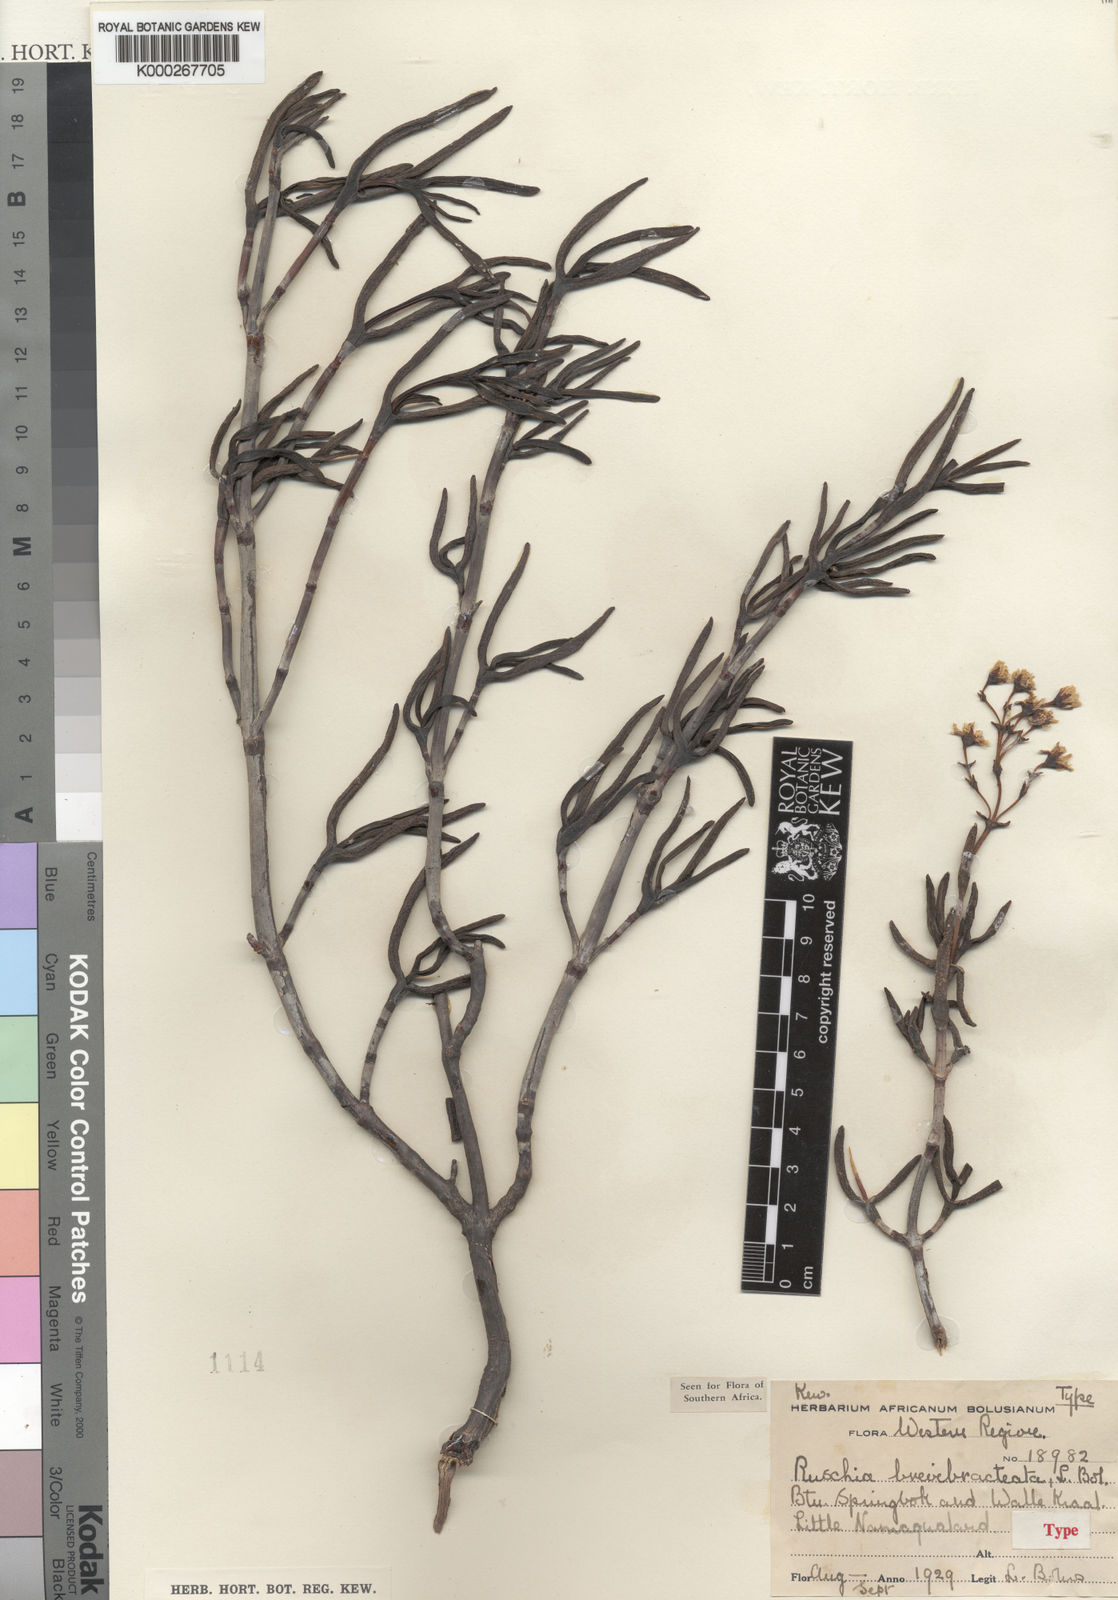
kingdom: Plantae
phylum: Tracheophyta
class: Magnoliopsida
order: Caryophyllales
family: Aizoaceae
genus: Ruschia
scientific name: Ruschia
